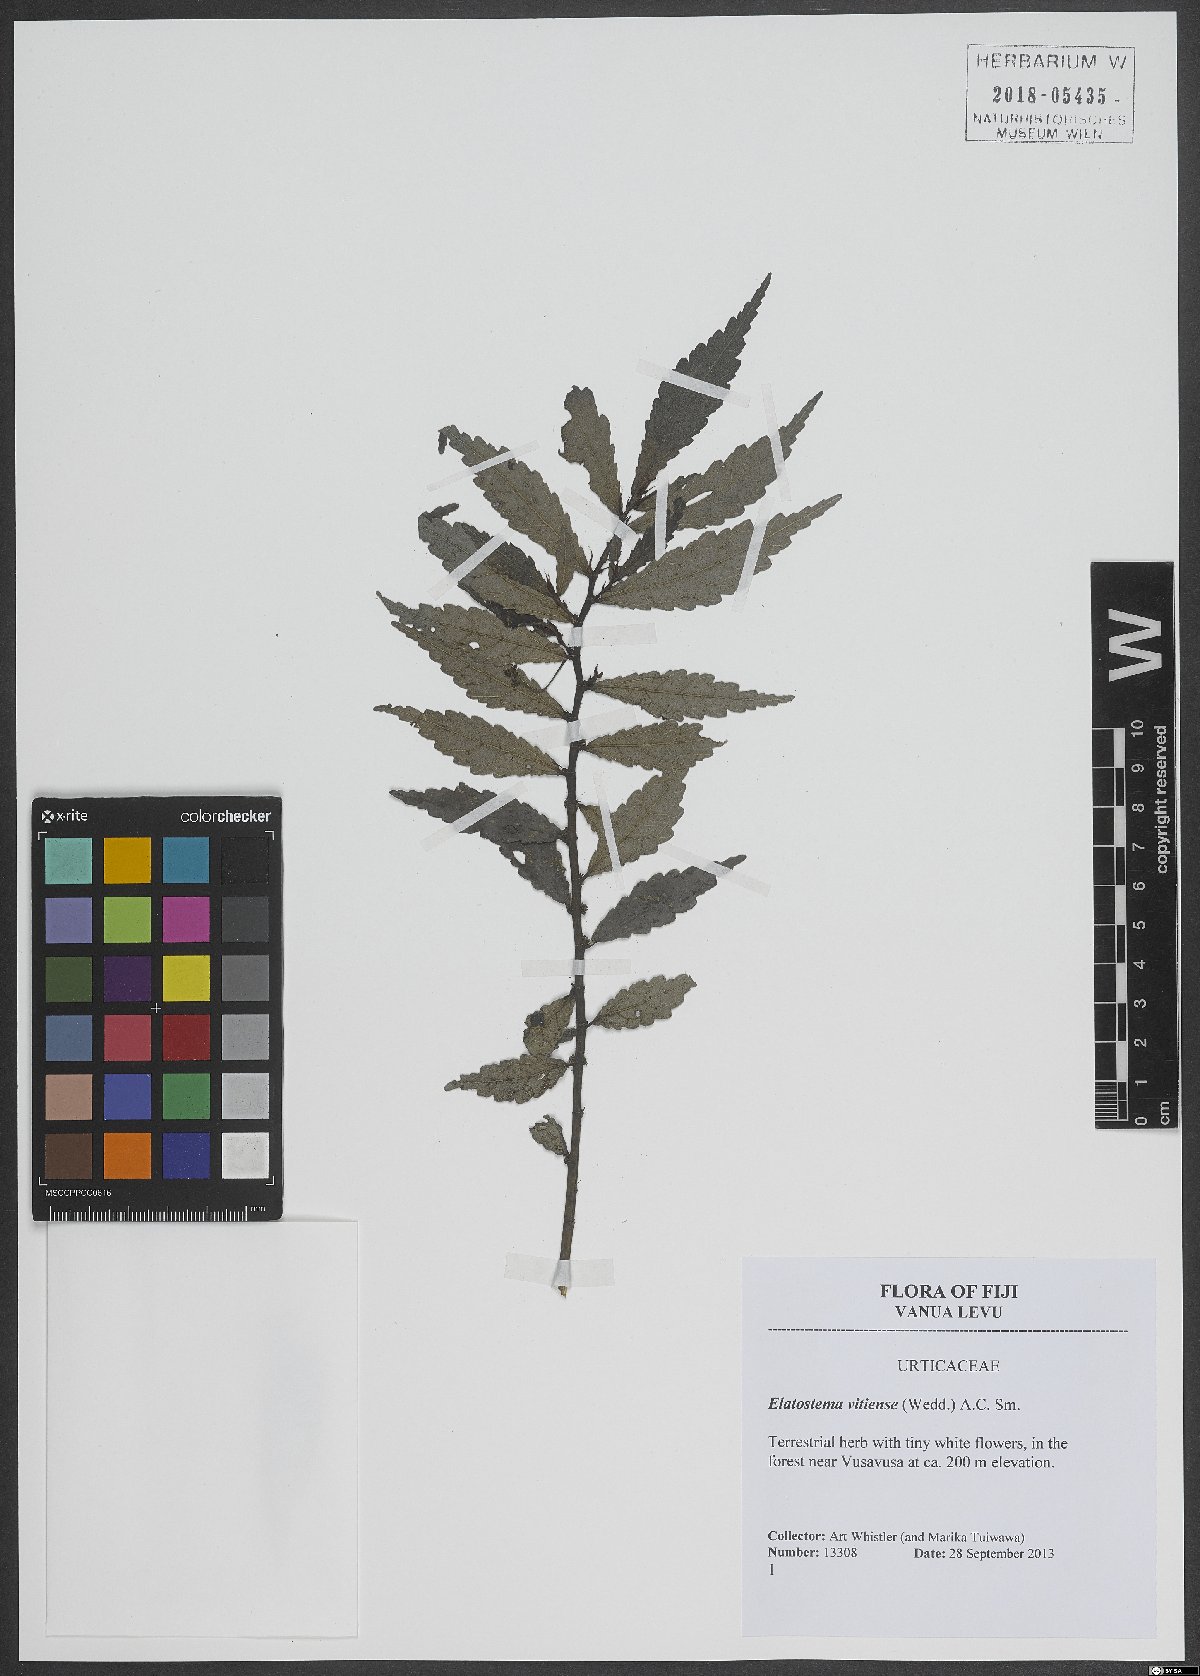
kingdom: Plantae
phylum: Tracheophyta
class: Magnoliopsida
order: Rosales
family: Urticaceae
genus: Elatostema
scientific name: Elatostema vitiense
